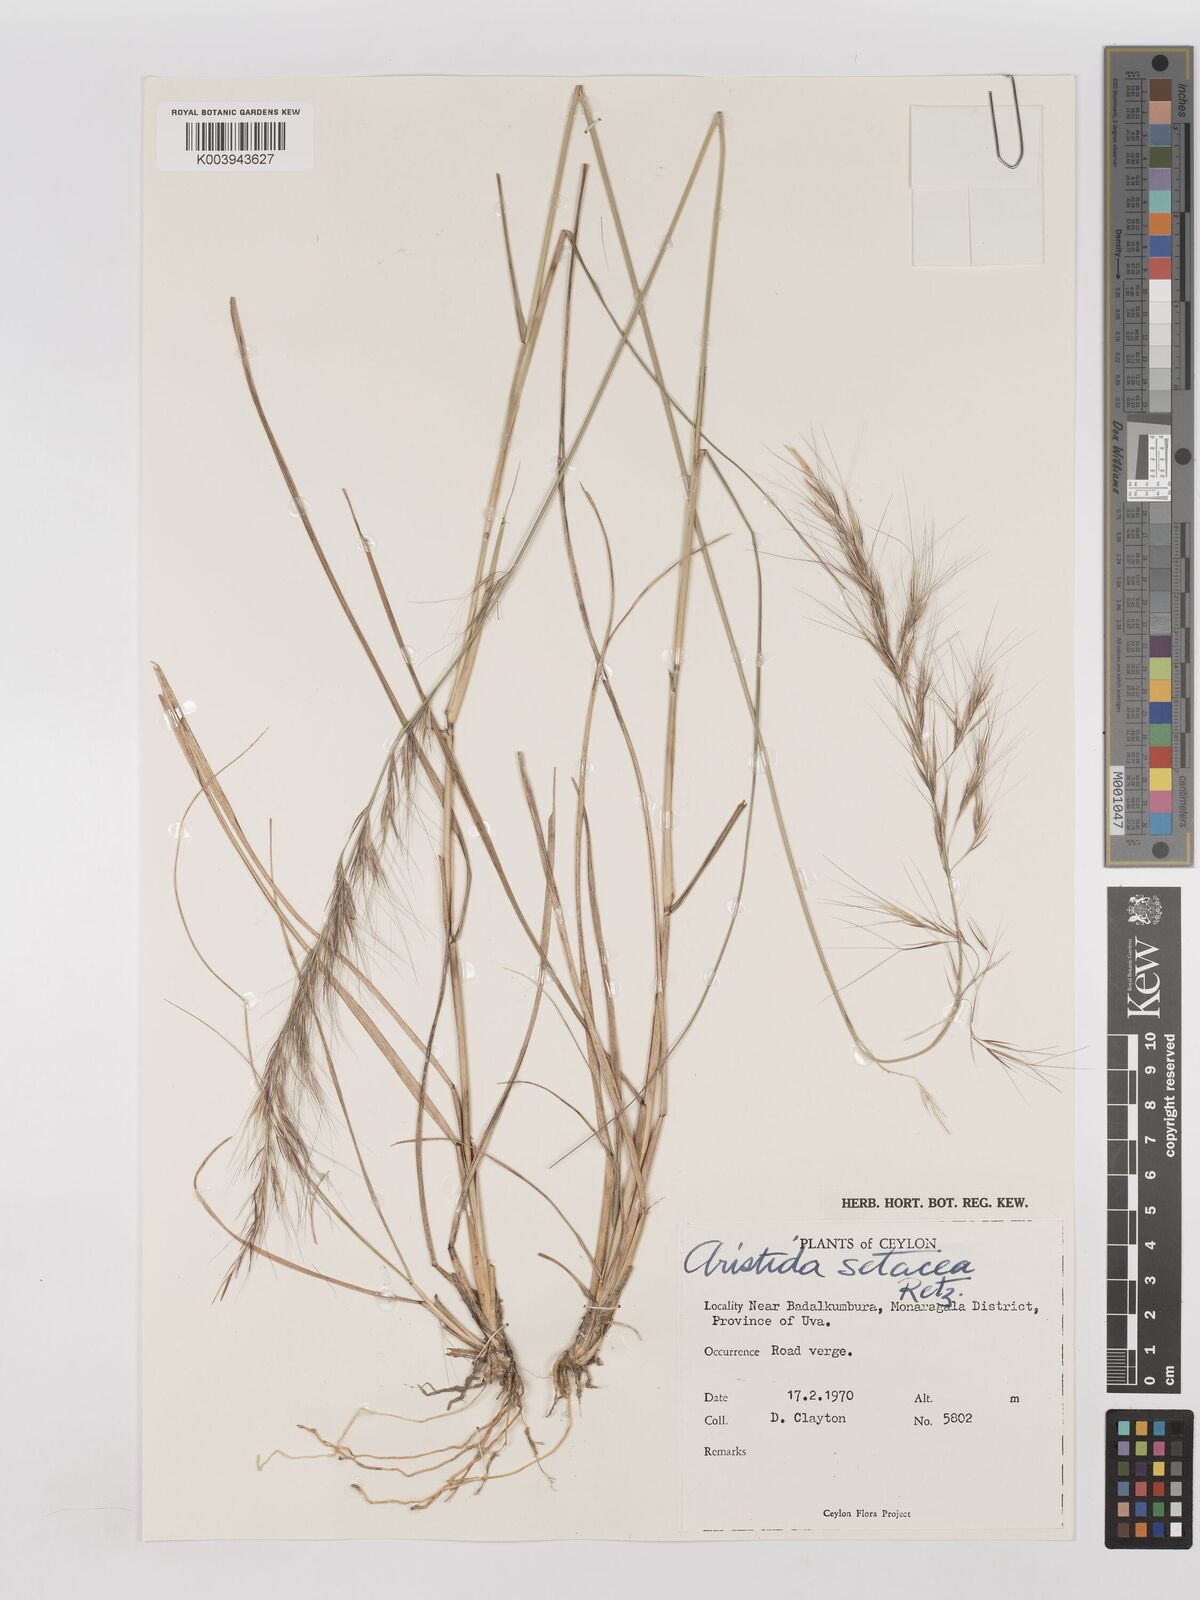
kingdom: Plantae
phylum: Tracheophyta
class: Liliopsida
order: Poales
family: Poaceae
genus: Aristida
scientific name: Aristida setacea
